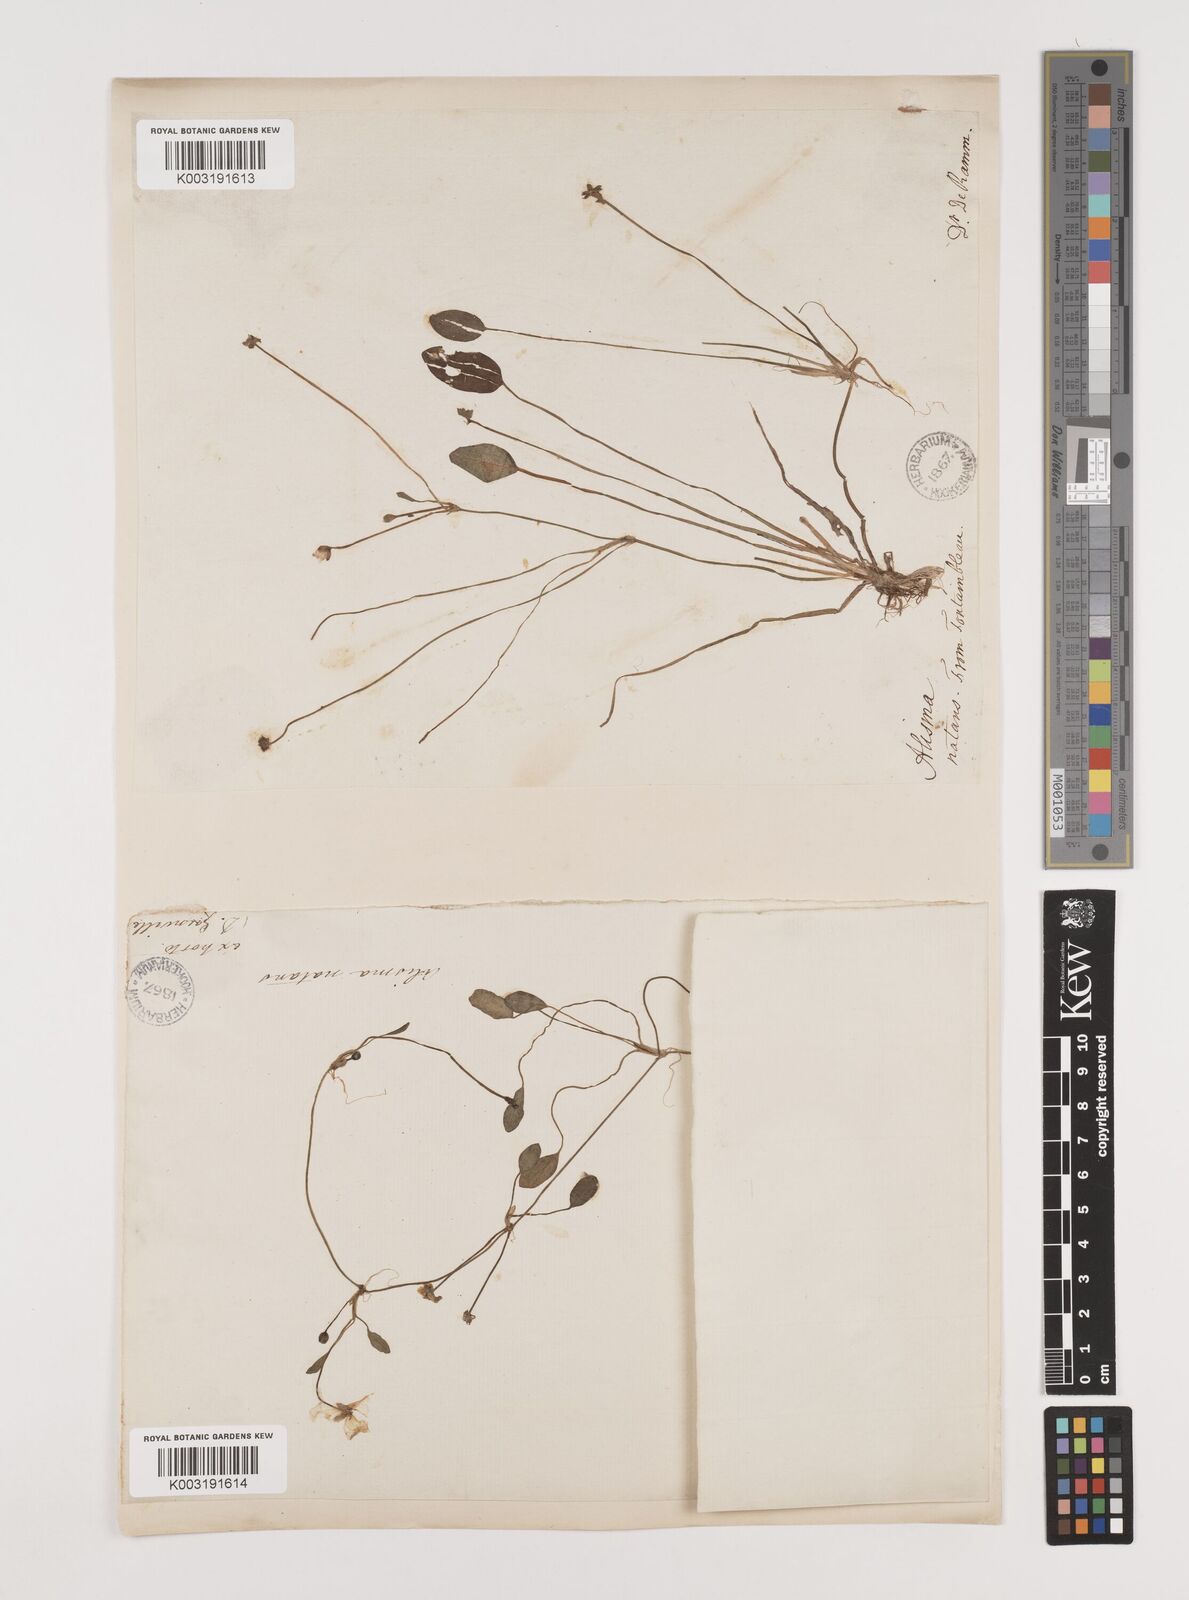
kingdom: Plantae
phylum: Tracheophyta
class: Liliopsida
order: Alismatales
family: Alismataceae
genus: Luronium
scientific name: Luronium natans
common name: Floating water-plantain
